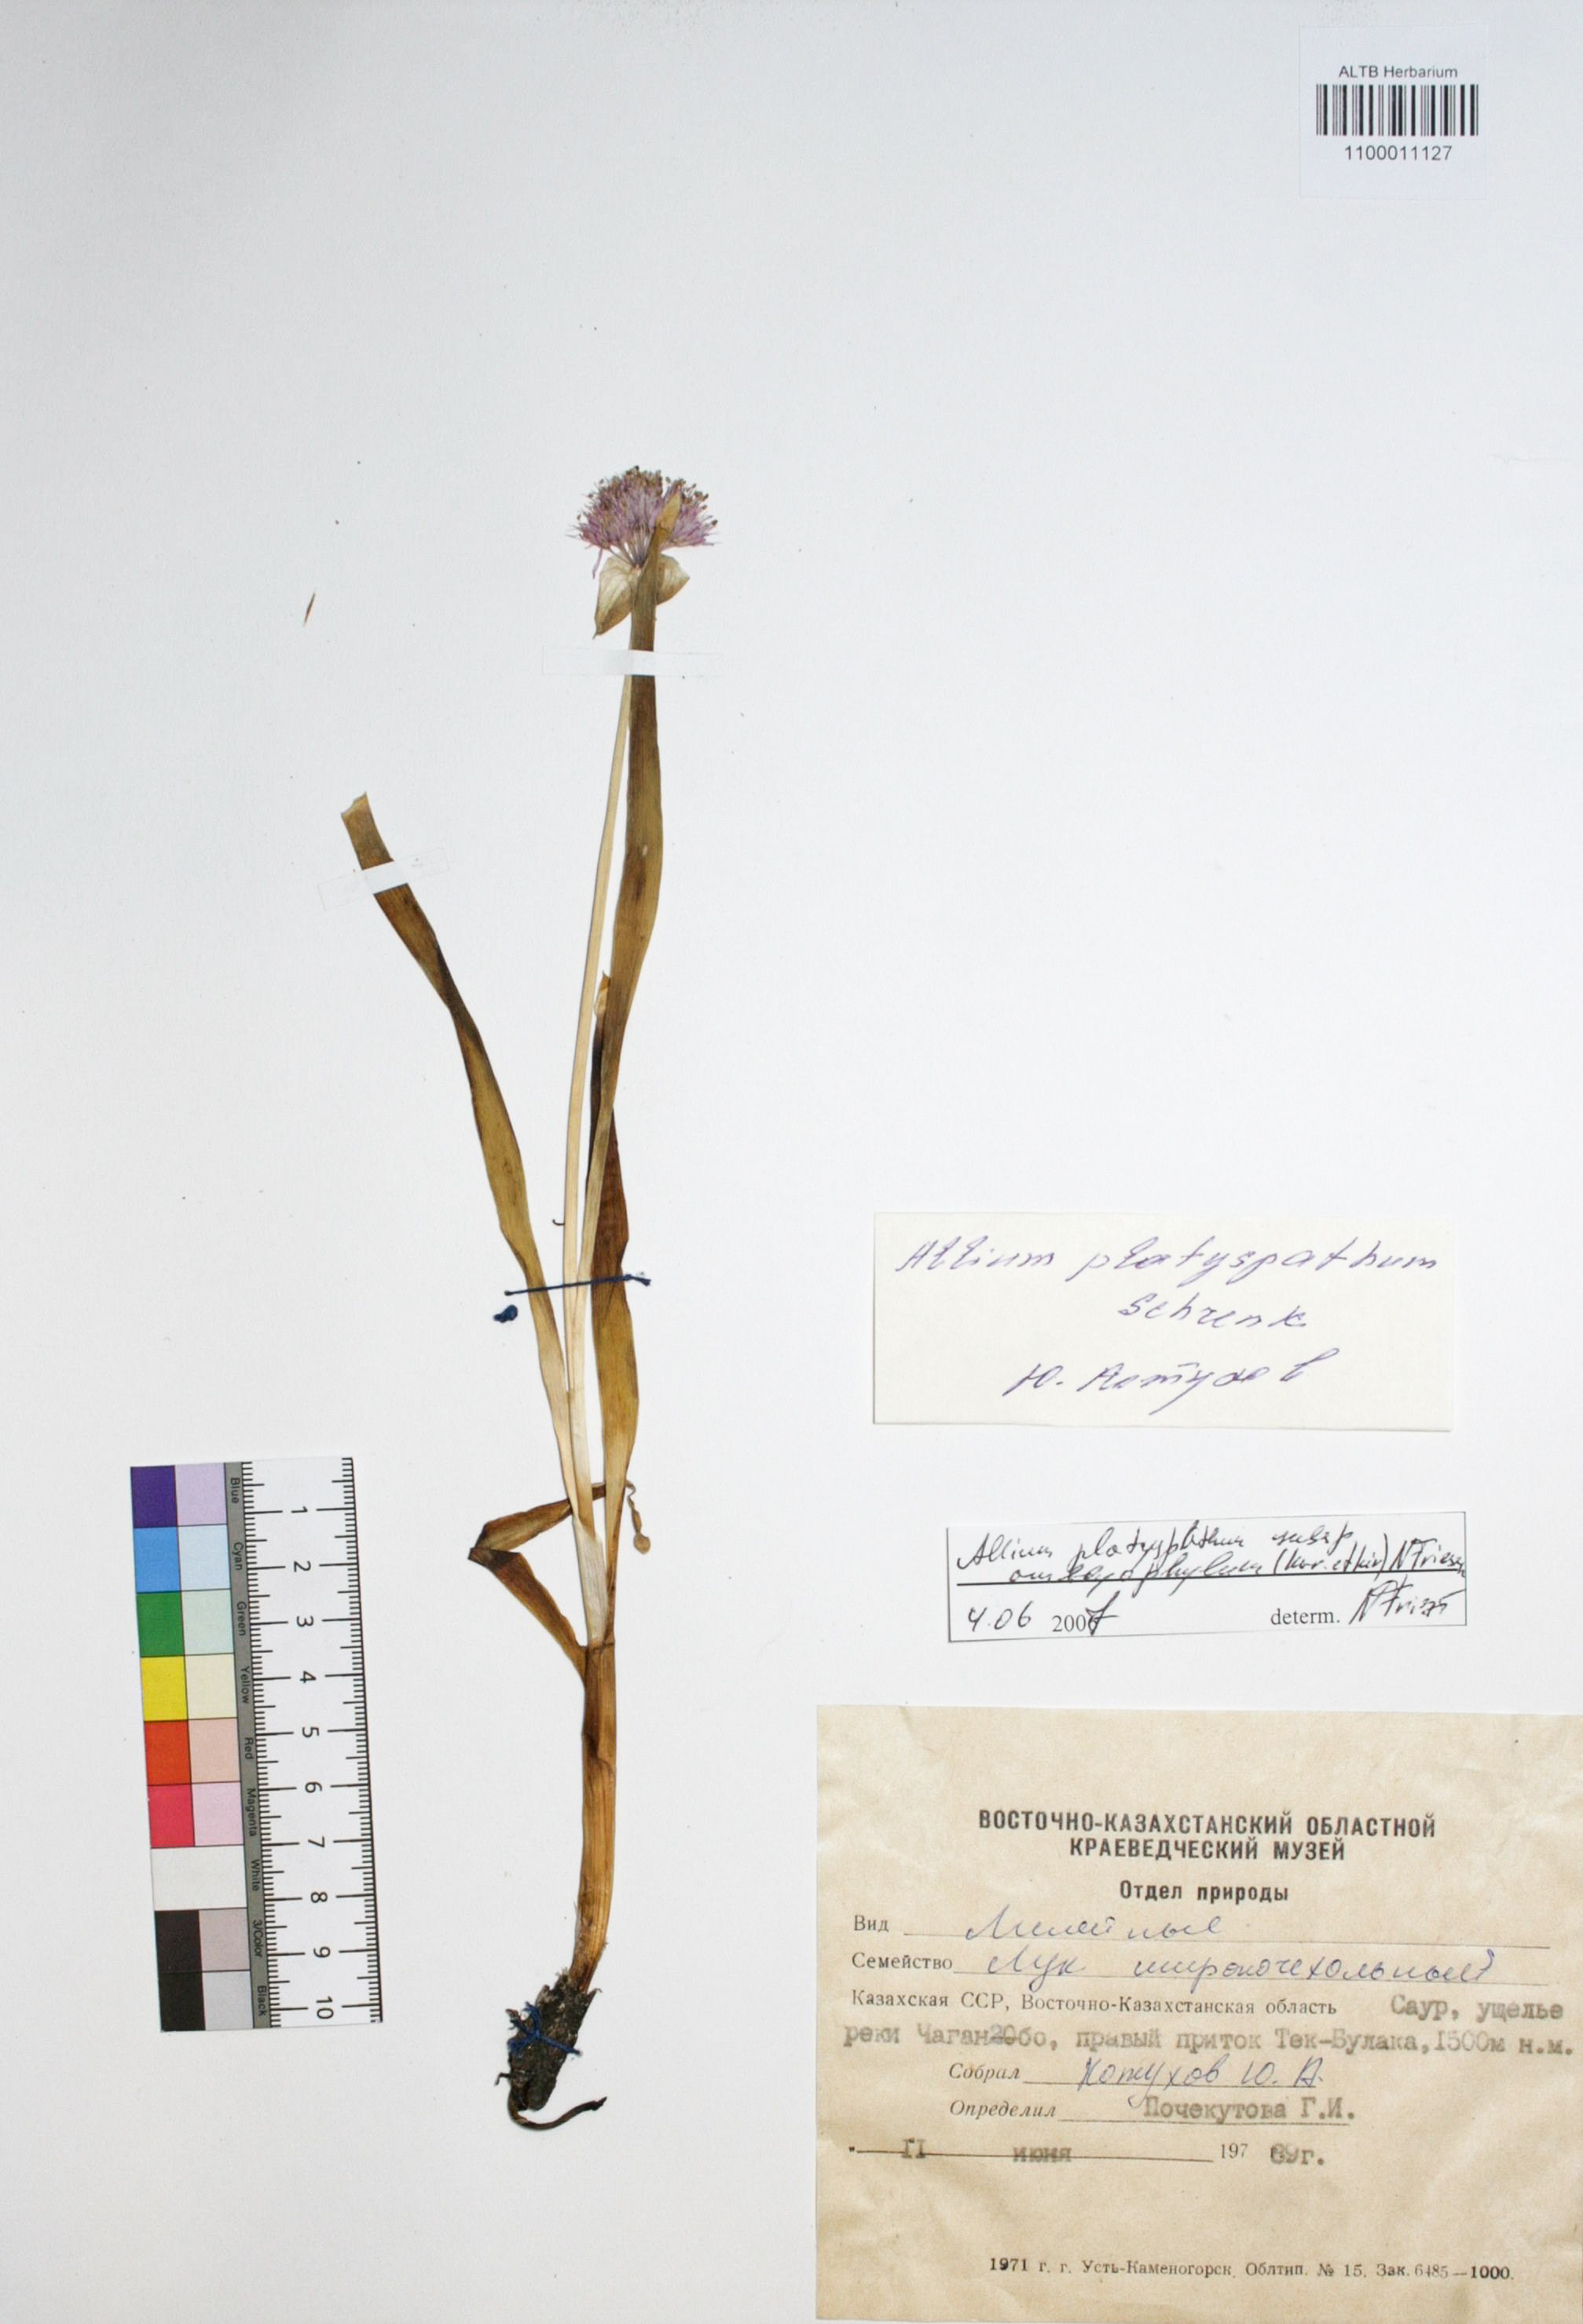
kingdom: Plantae
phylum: Tracheophyta
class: Liliopsida
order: Asparagales
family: Amaryllidaceae
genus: Allium
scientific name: Allium platyspathum
